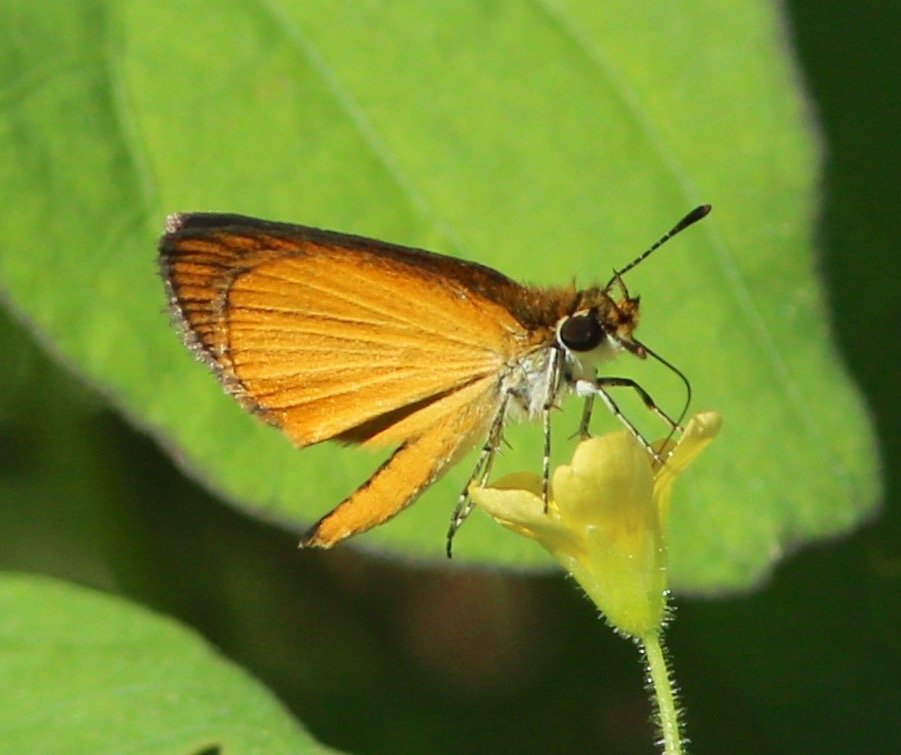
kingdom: Animalia
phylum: Arthropoda
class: Insecta
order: Lepidoptera
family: Hesperiidae
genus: Ancyloxypha
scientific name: Ancyloxypha numitor
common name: Least Skipper
